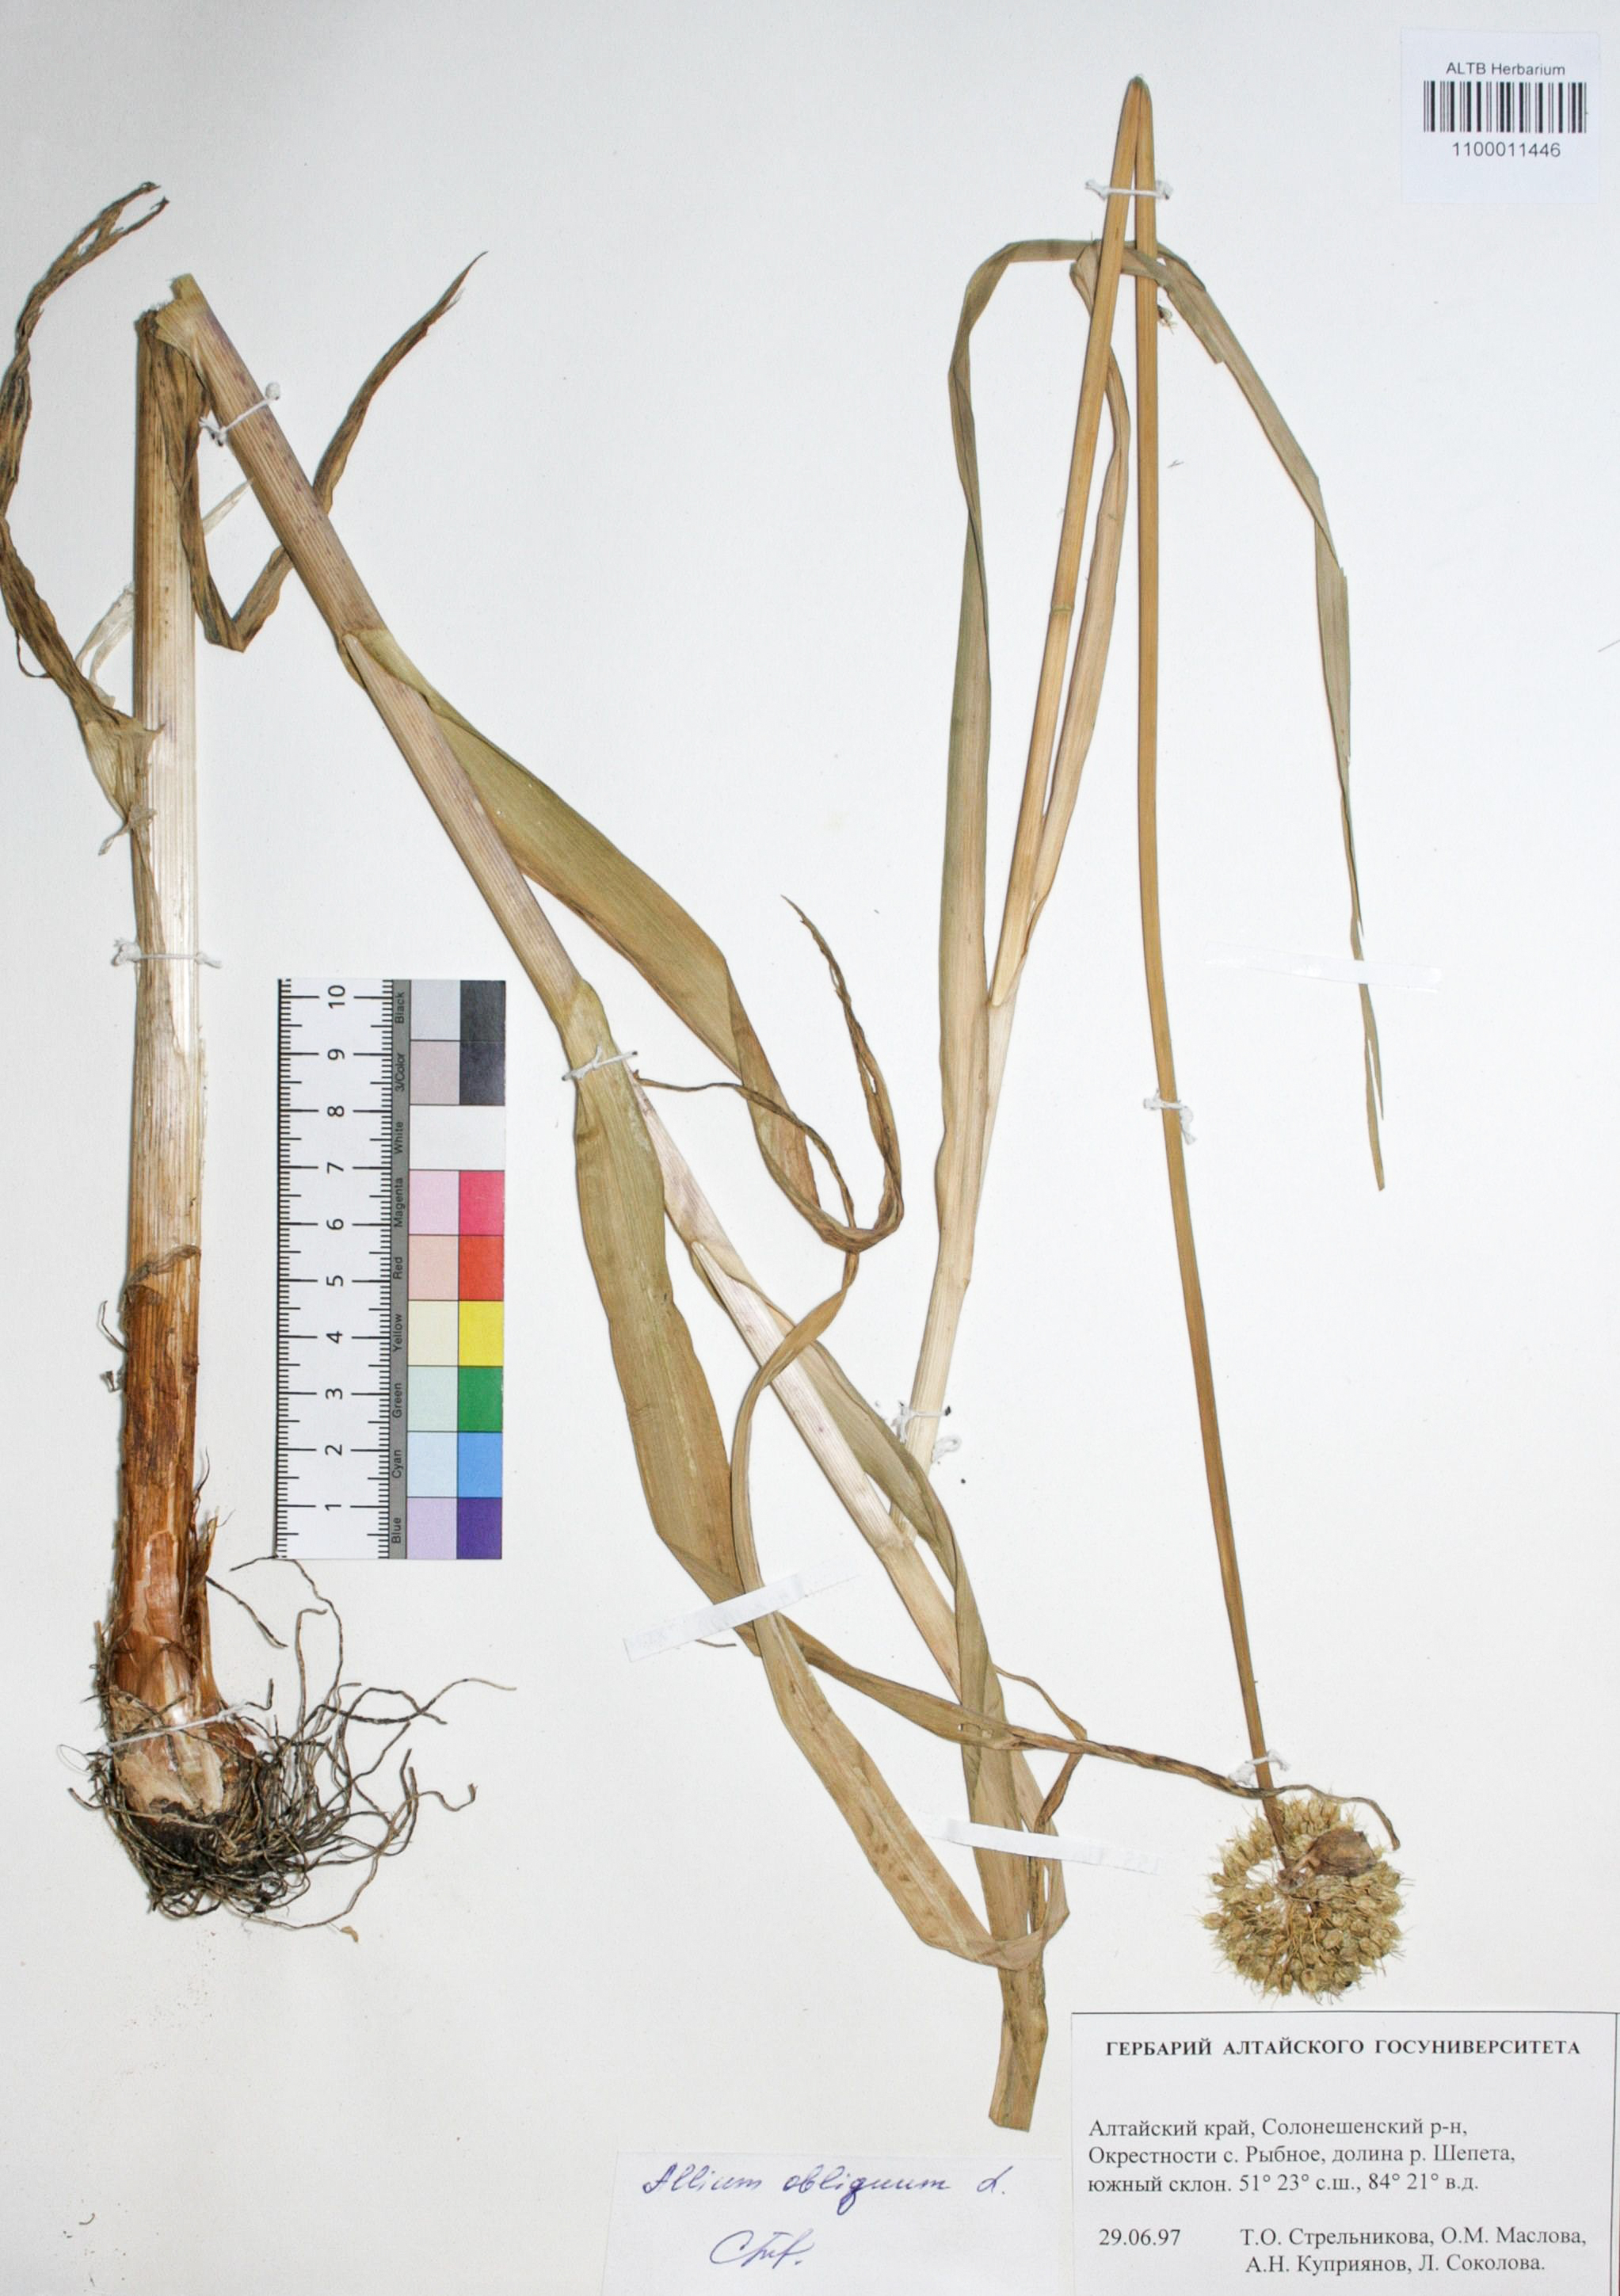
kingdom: Plantae
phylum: Tracheophyta
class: Liliopsida
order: Asparagales
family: Amaryllidaceae
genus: Allium
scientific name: Allium obliquum
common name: Oblique onion
